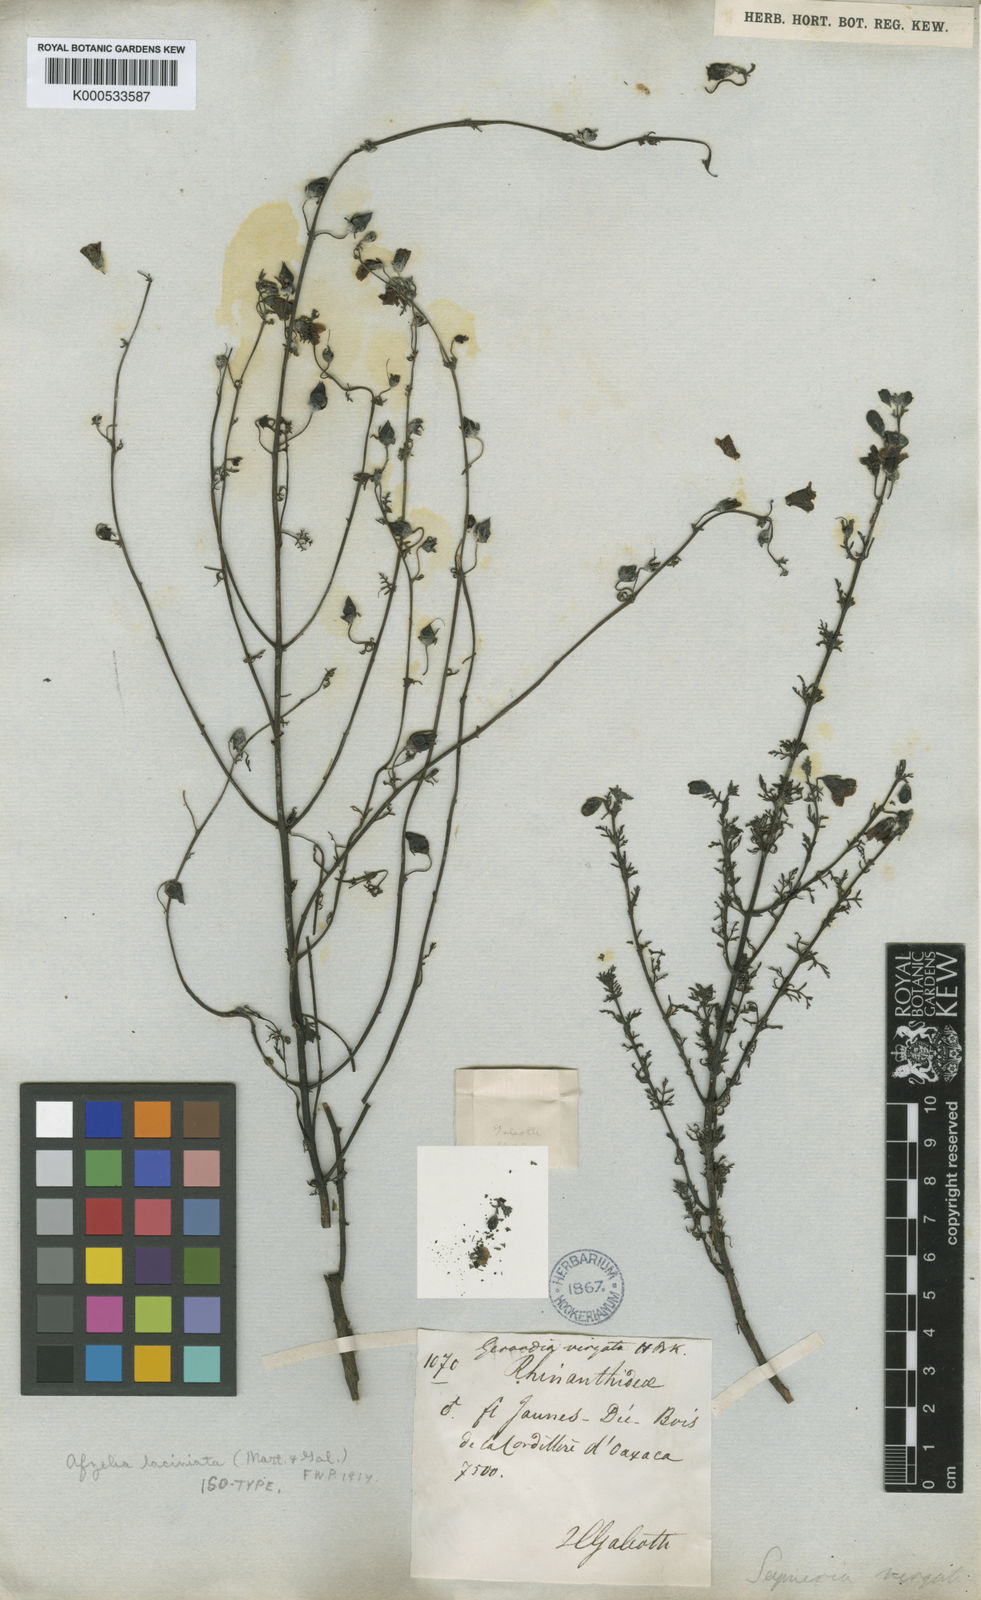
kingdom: Plantae
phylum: Tracheophyta
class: Magnoliopsida
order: Lamiales
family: Orobanchaceae
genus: Seymeria
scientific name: Seymeria laciniata
